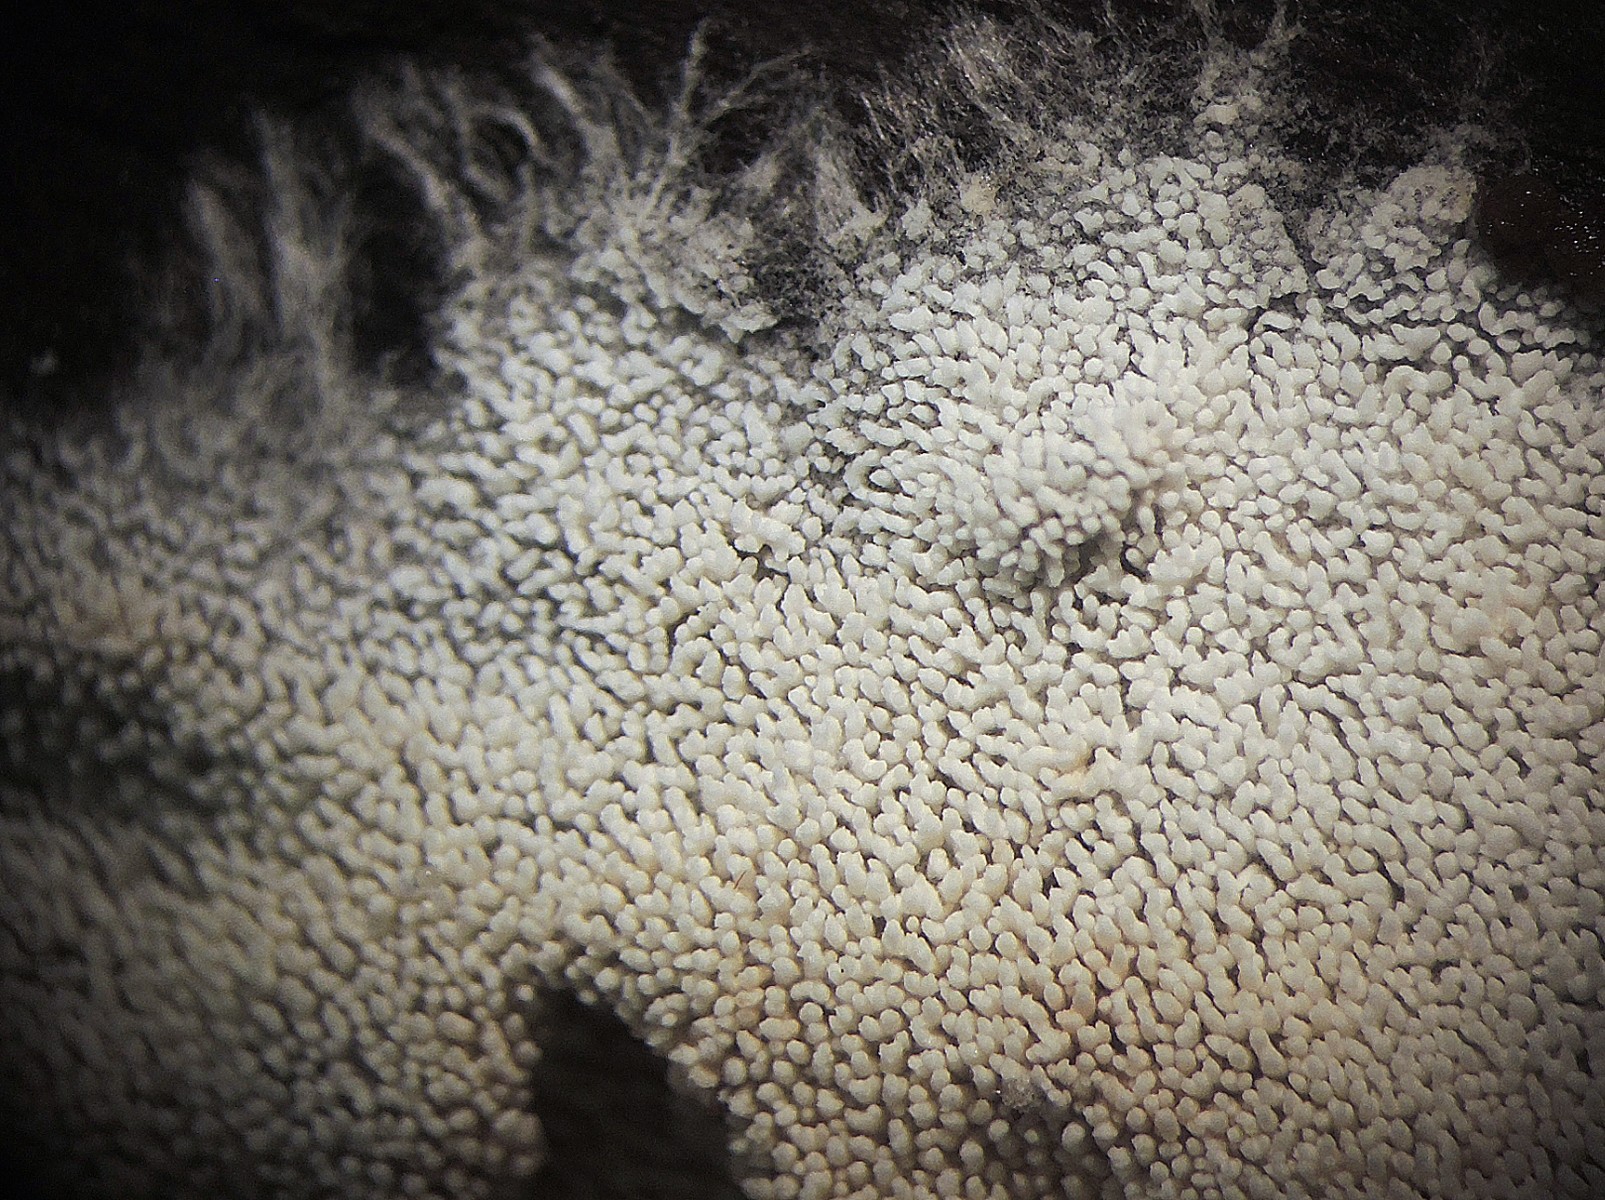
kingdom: Fungi
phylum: Basidiomycota
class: Agaricomycetes
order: Trechisporales
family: Sistotremataceae
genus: Trechispora
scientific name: Trechispora nivea
